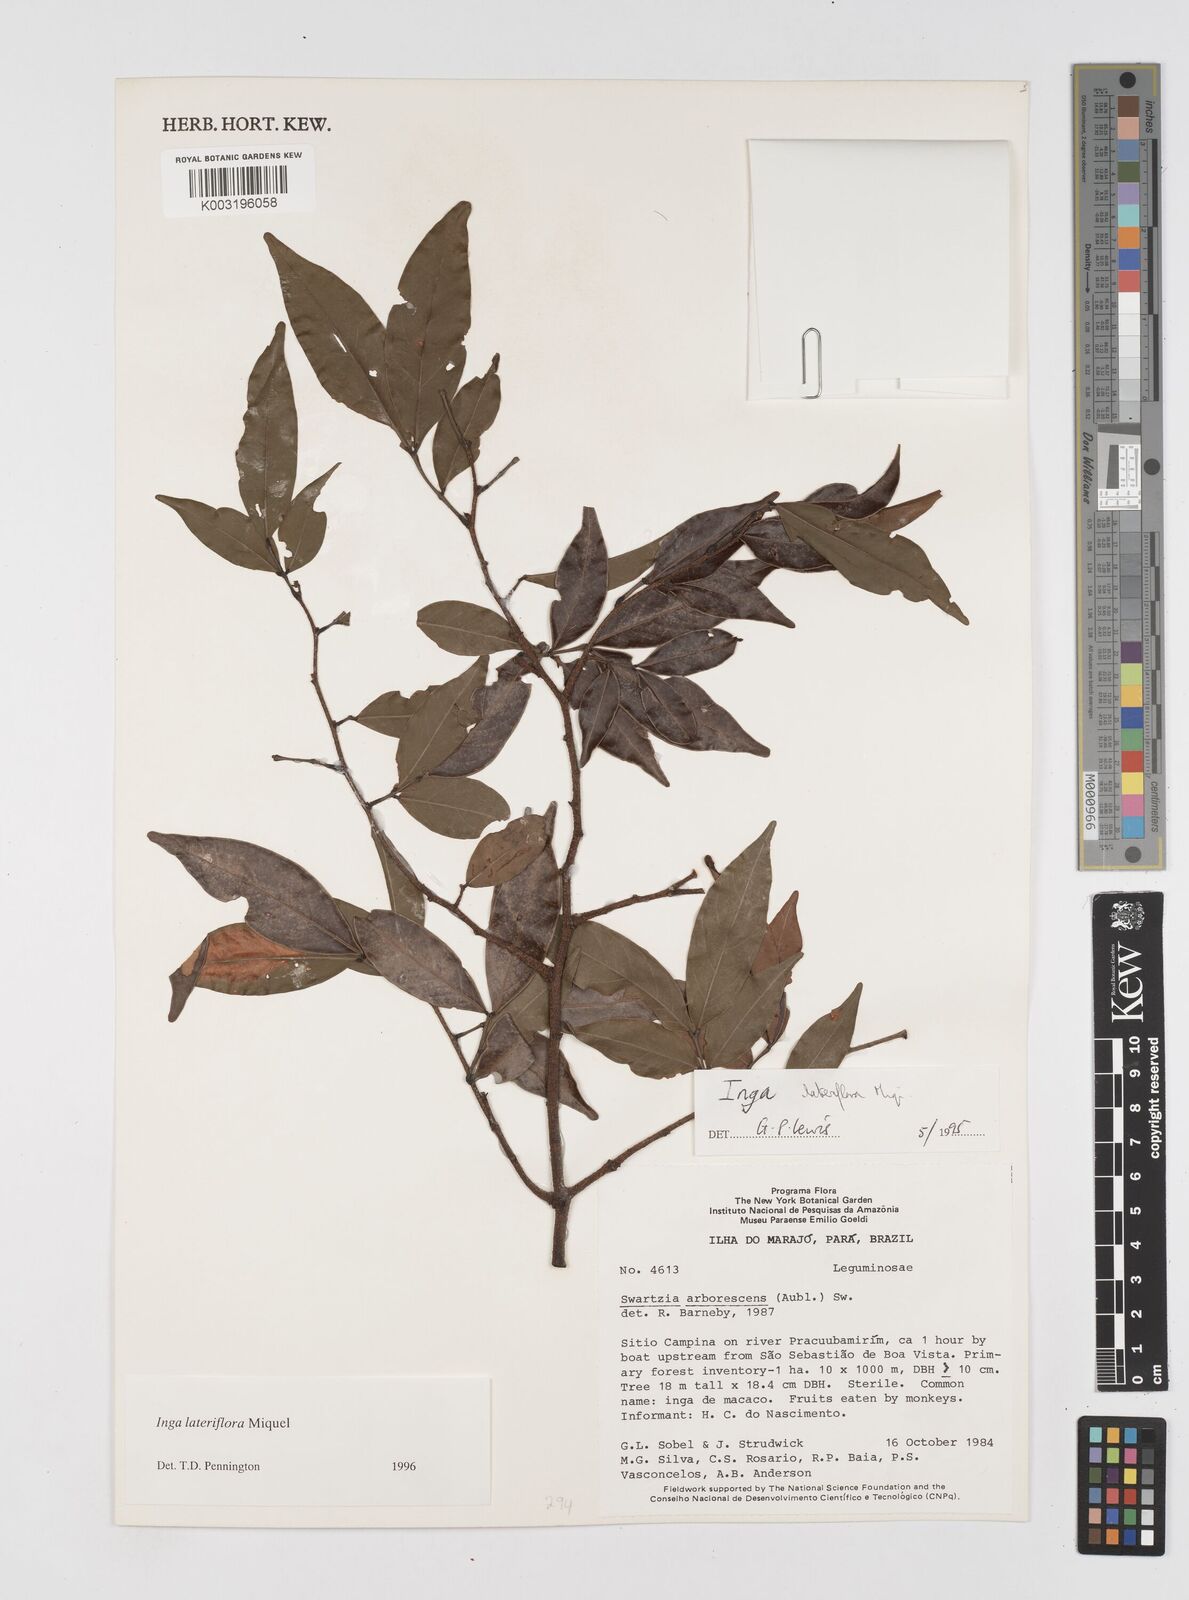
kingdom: Plantae
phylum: Tracheophyta
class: Magnoliopsida
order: Fabales
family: Fabaceae
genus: Inga
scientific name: Inga lateriflora
